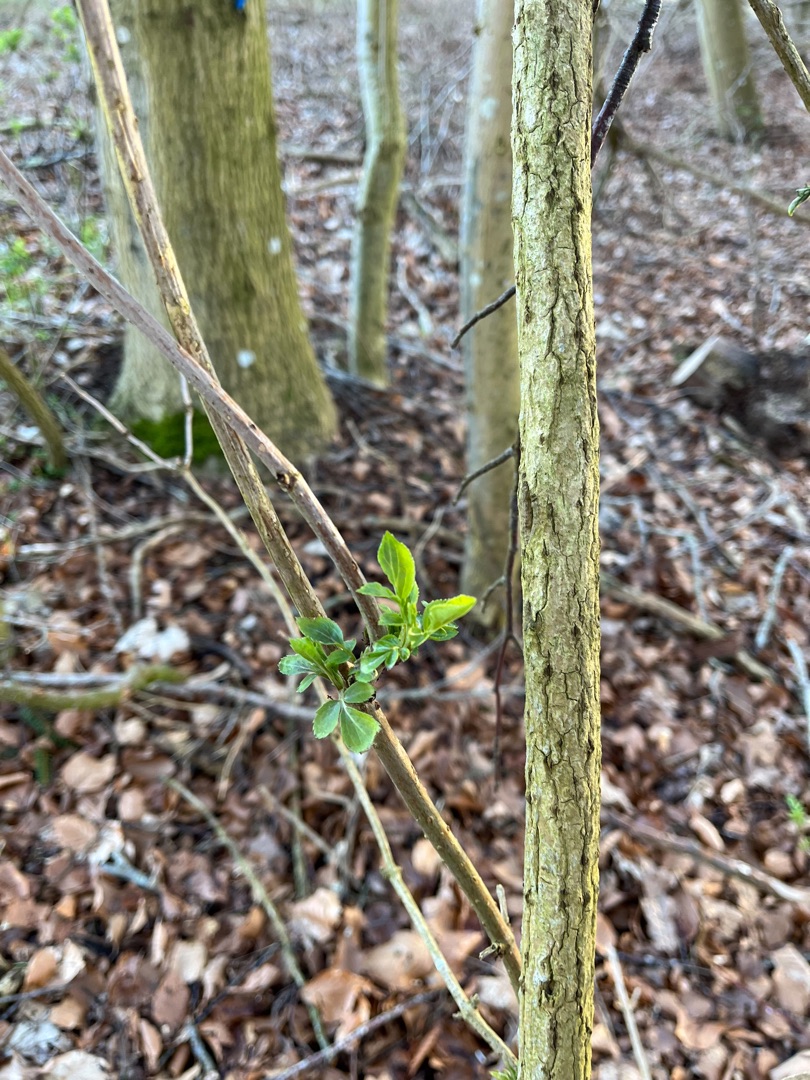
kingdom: Plantae
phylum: Tracheophyta
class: Magnoliopsida
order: Dipsacales
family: Viburnaceae
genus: Sambucus
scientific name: Sambucus nigra
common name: Almindelig hyld
